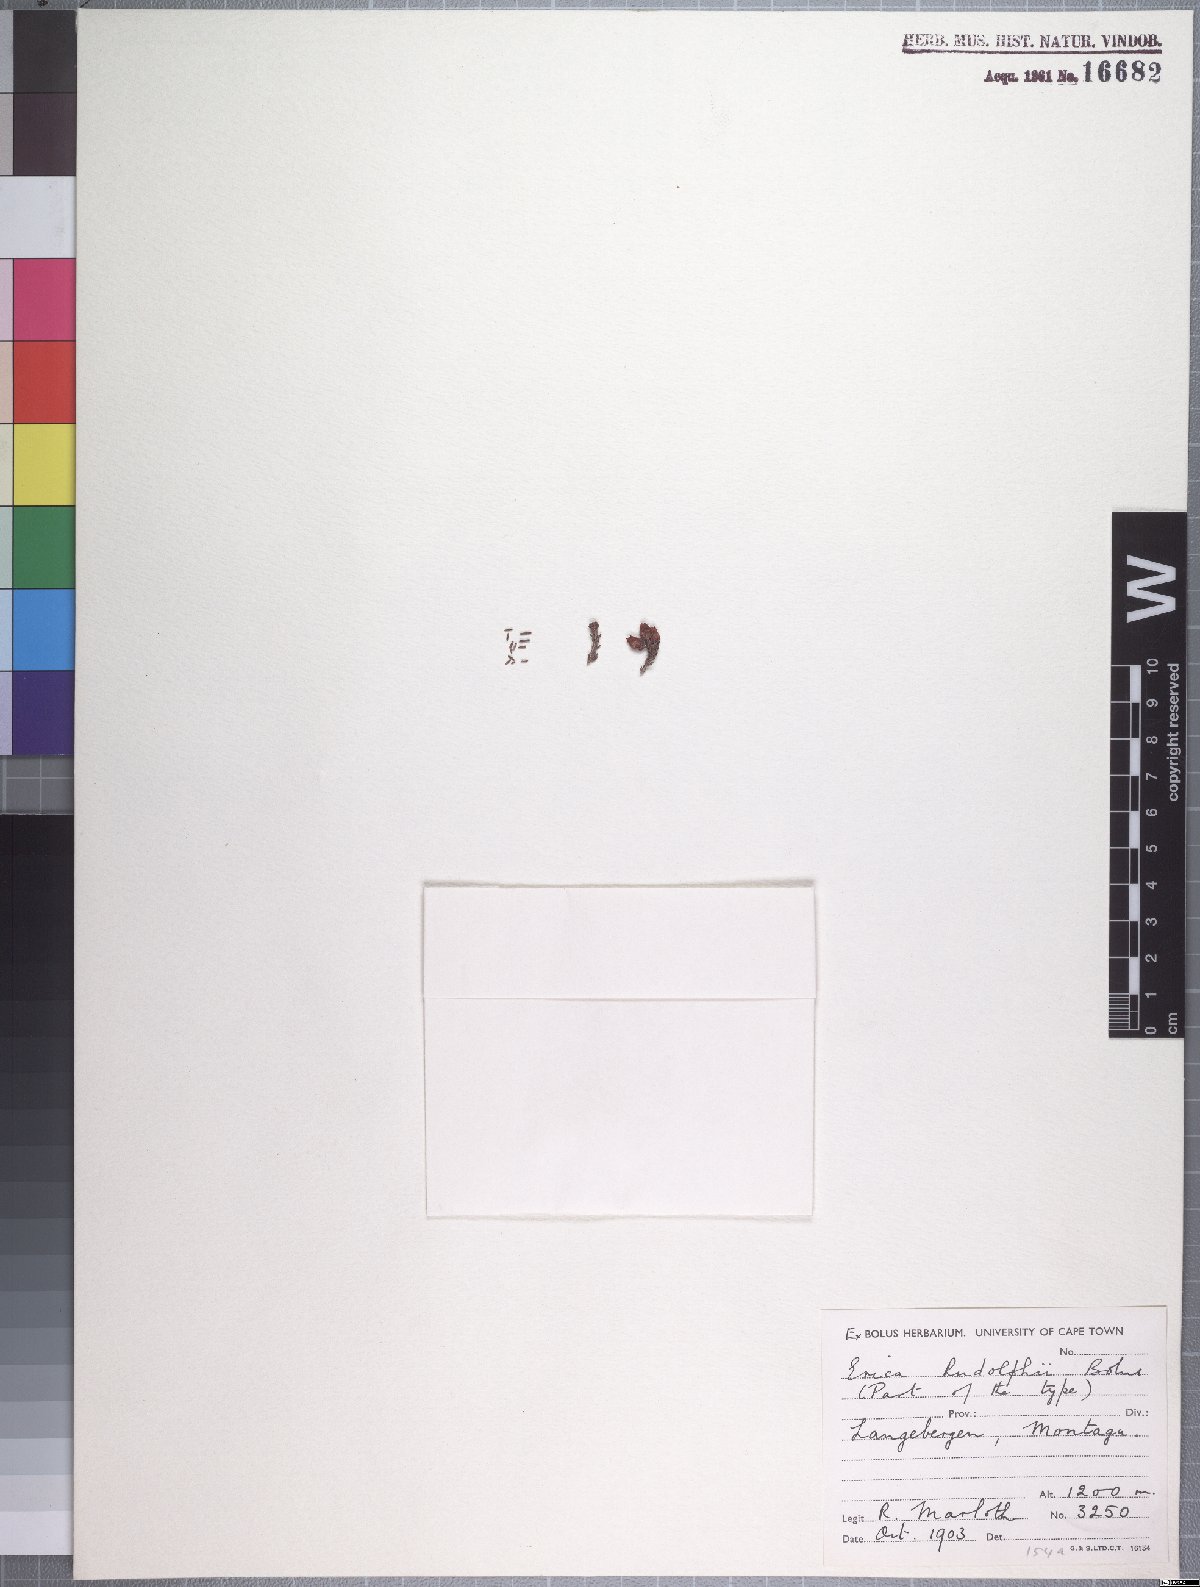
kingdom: Plantae
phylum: Tracheophyta
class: Magnoliopsida
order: Ericales
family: Ericaceae
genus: Erica
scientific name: Erica rudolfii
